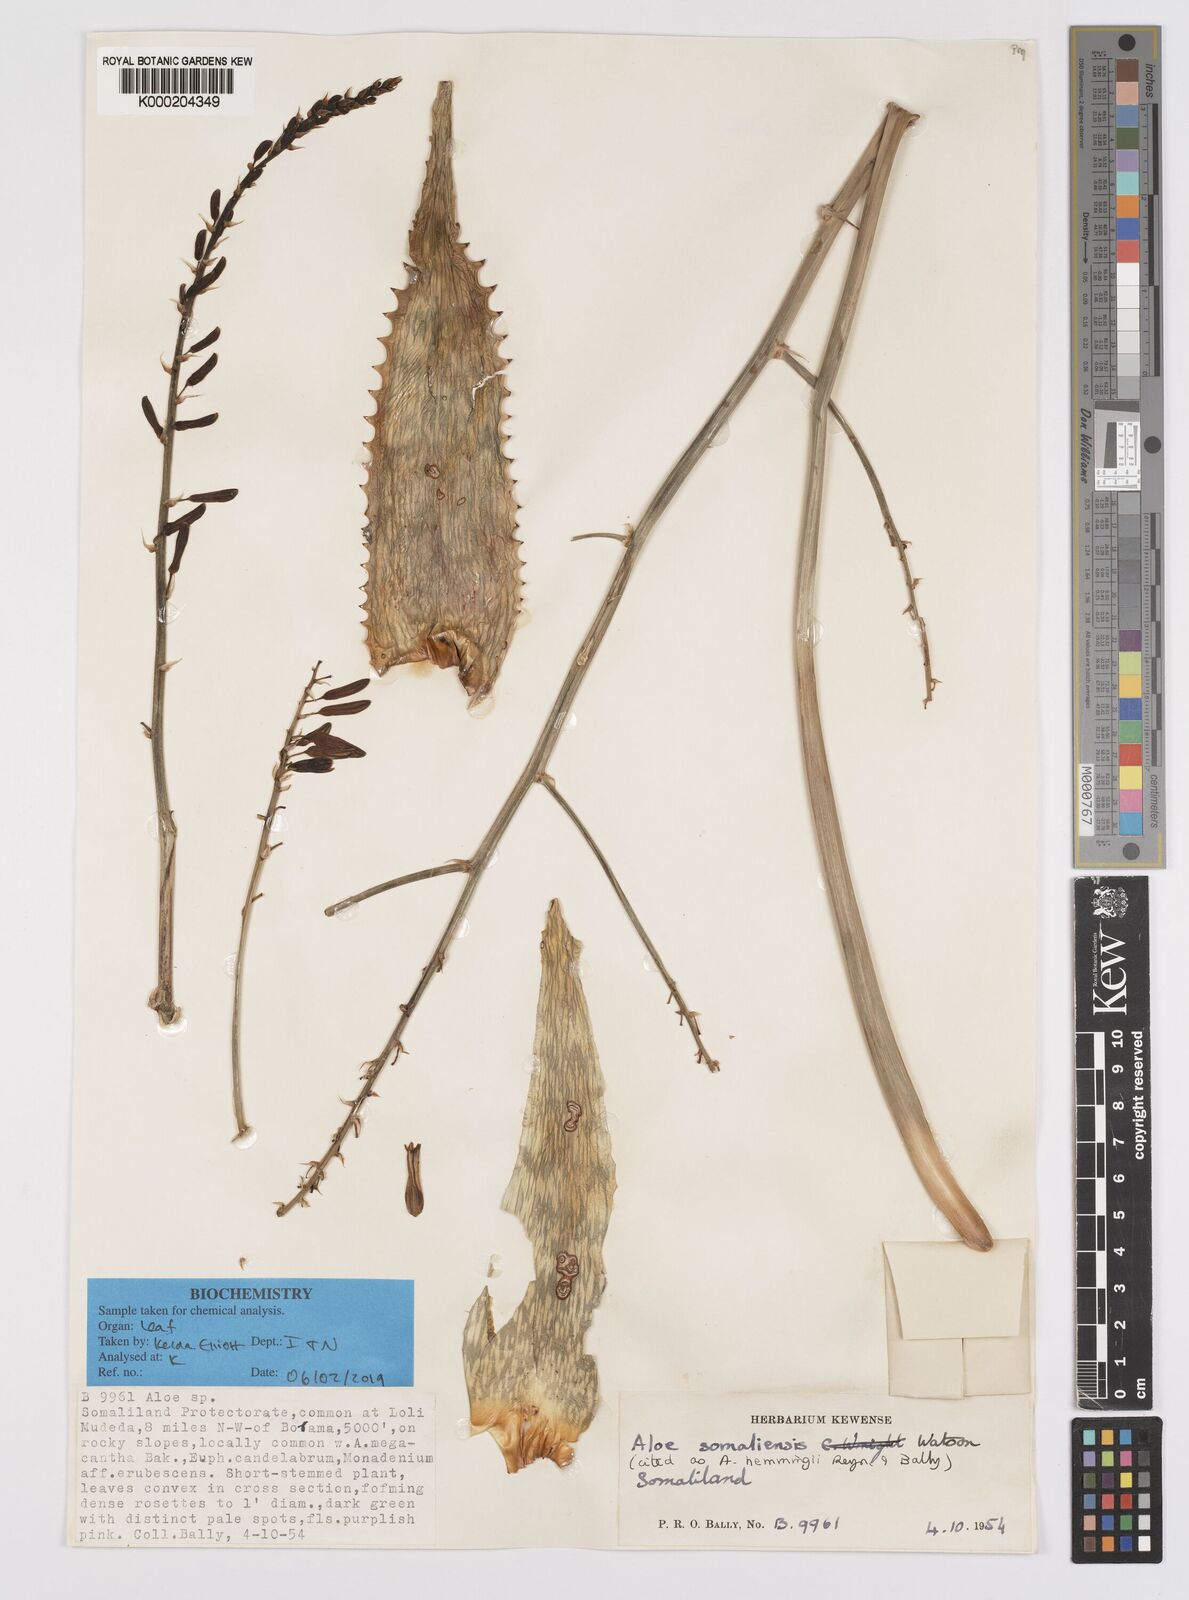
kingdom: Plantae
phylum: Tracheophyta
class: Liliopsida
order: Asparagales
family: Asphodelaceae
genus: Aloe
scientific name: Aloe somaliensis
